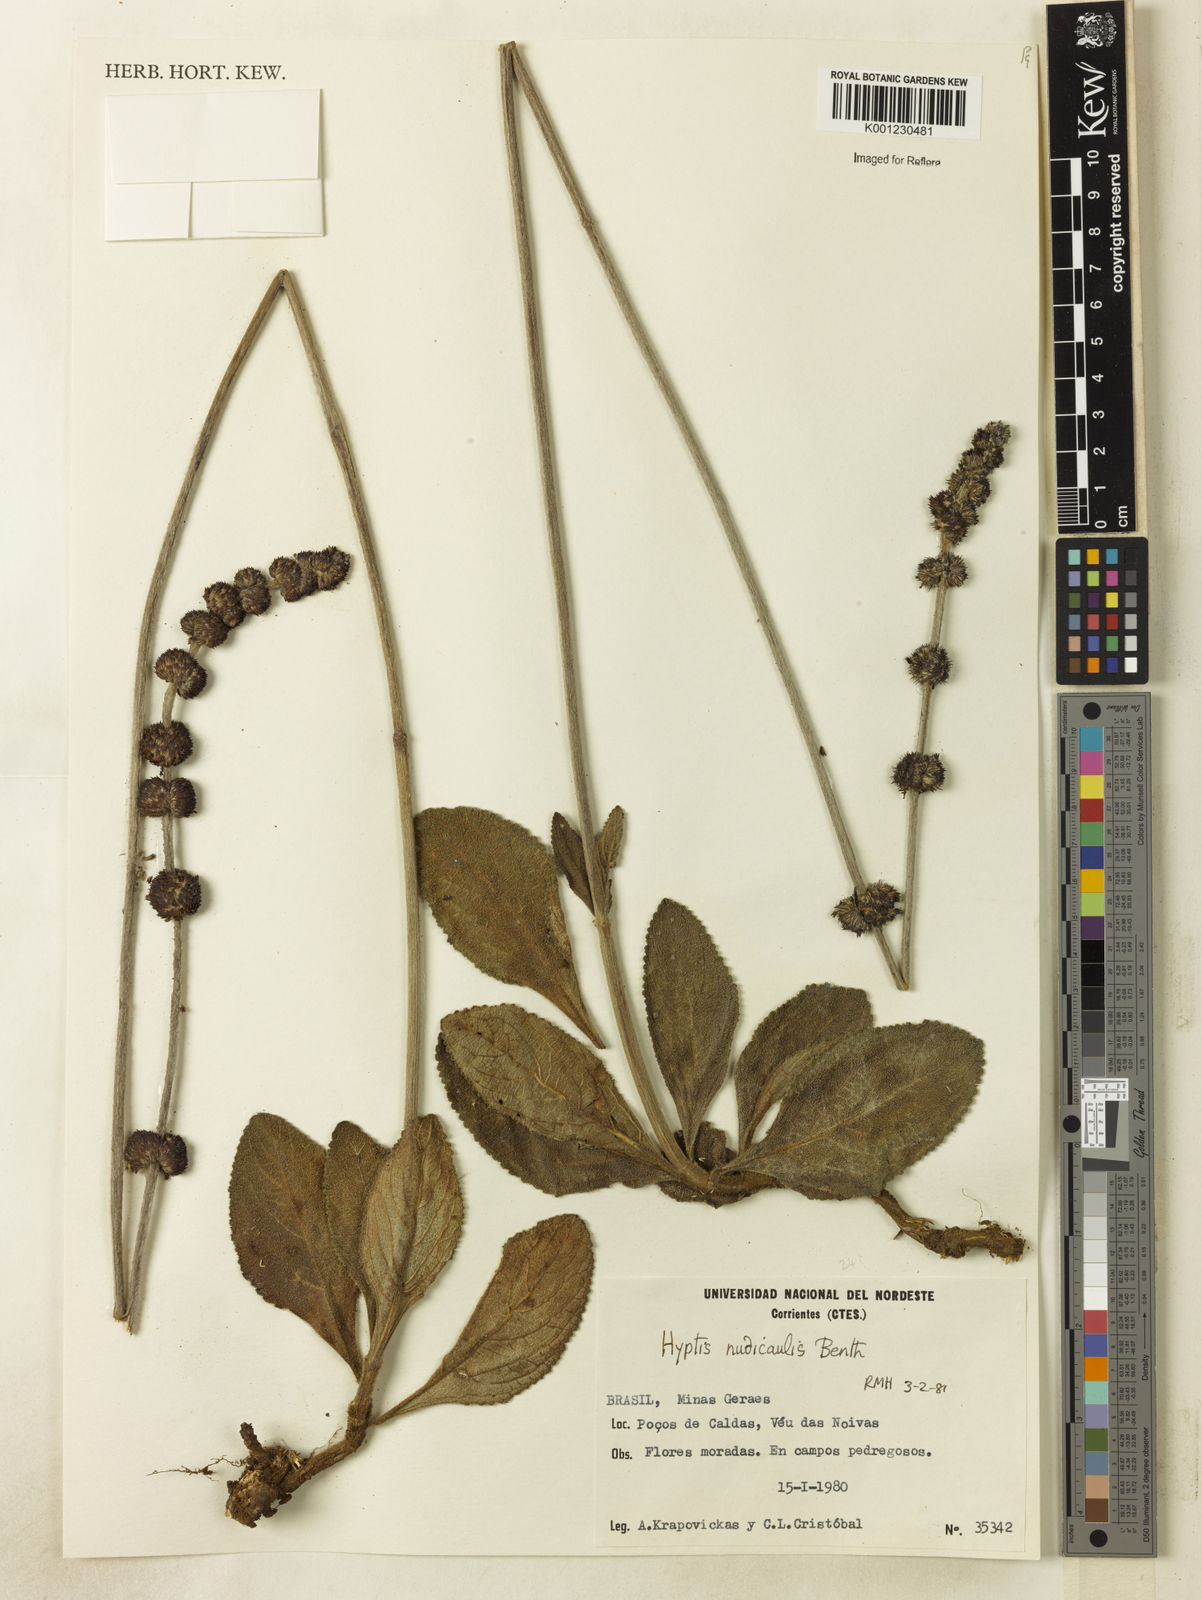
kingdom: Plantae
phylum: Tracheophyta
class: Magnoliopsida
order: Lamiales
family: Lamiaceae
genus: Hyptis
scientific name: Hyptis nudicaulis
